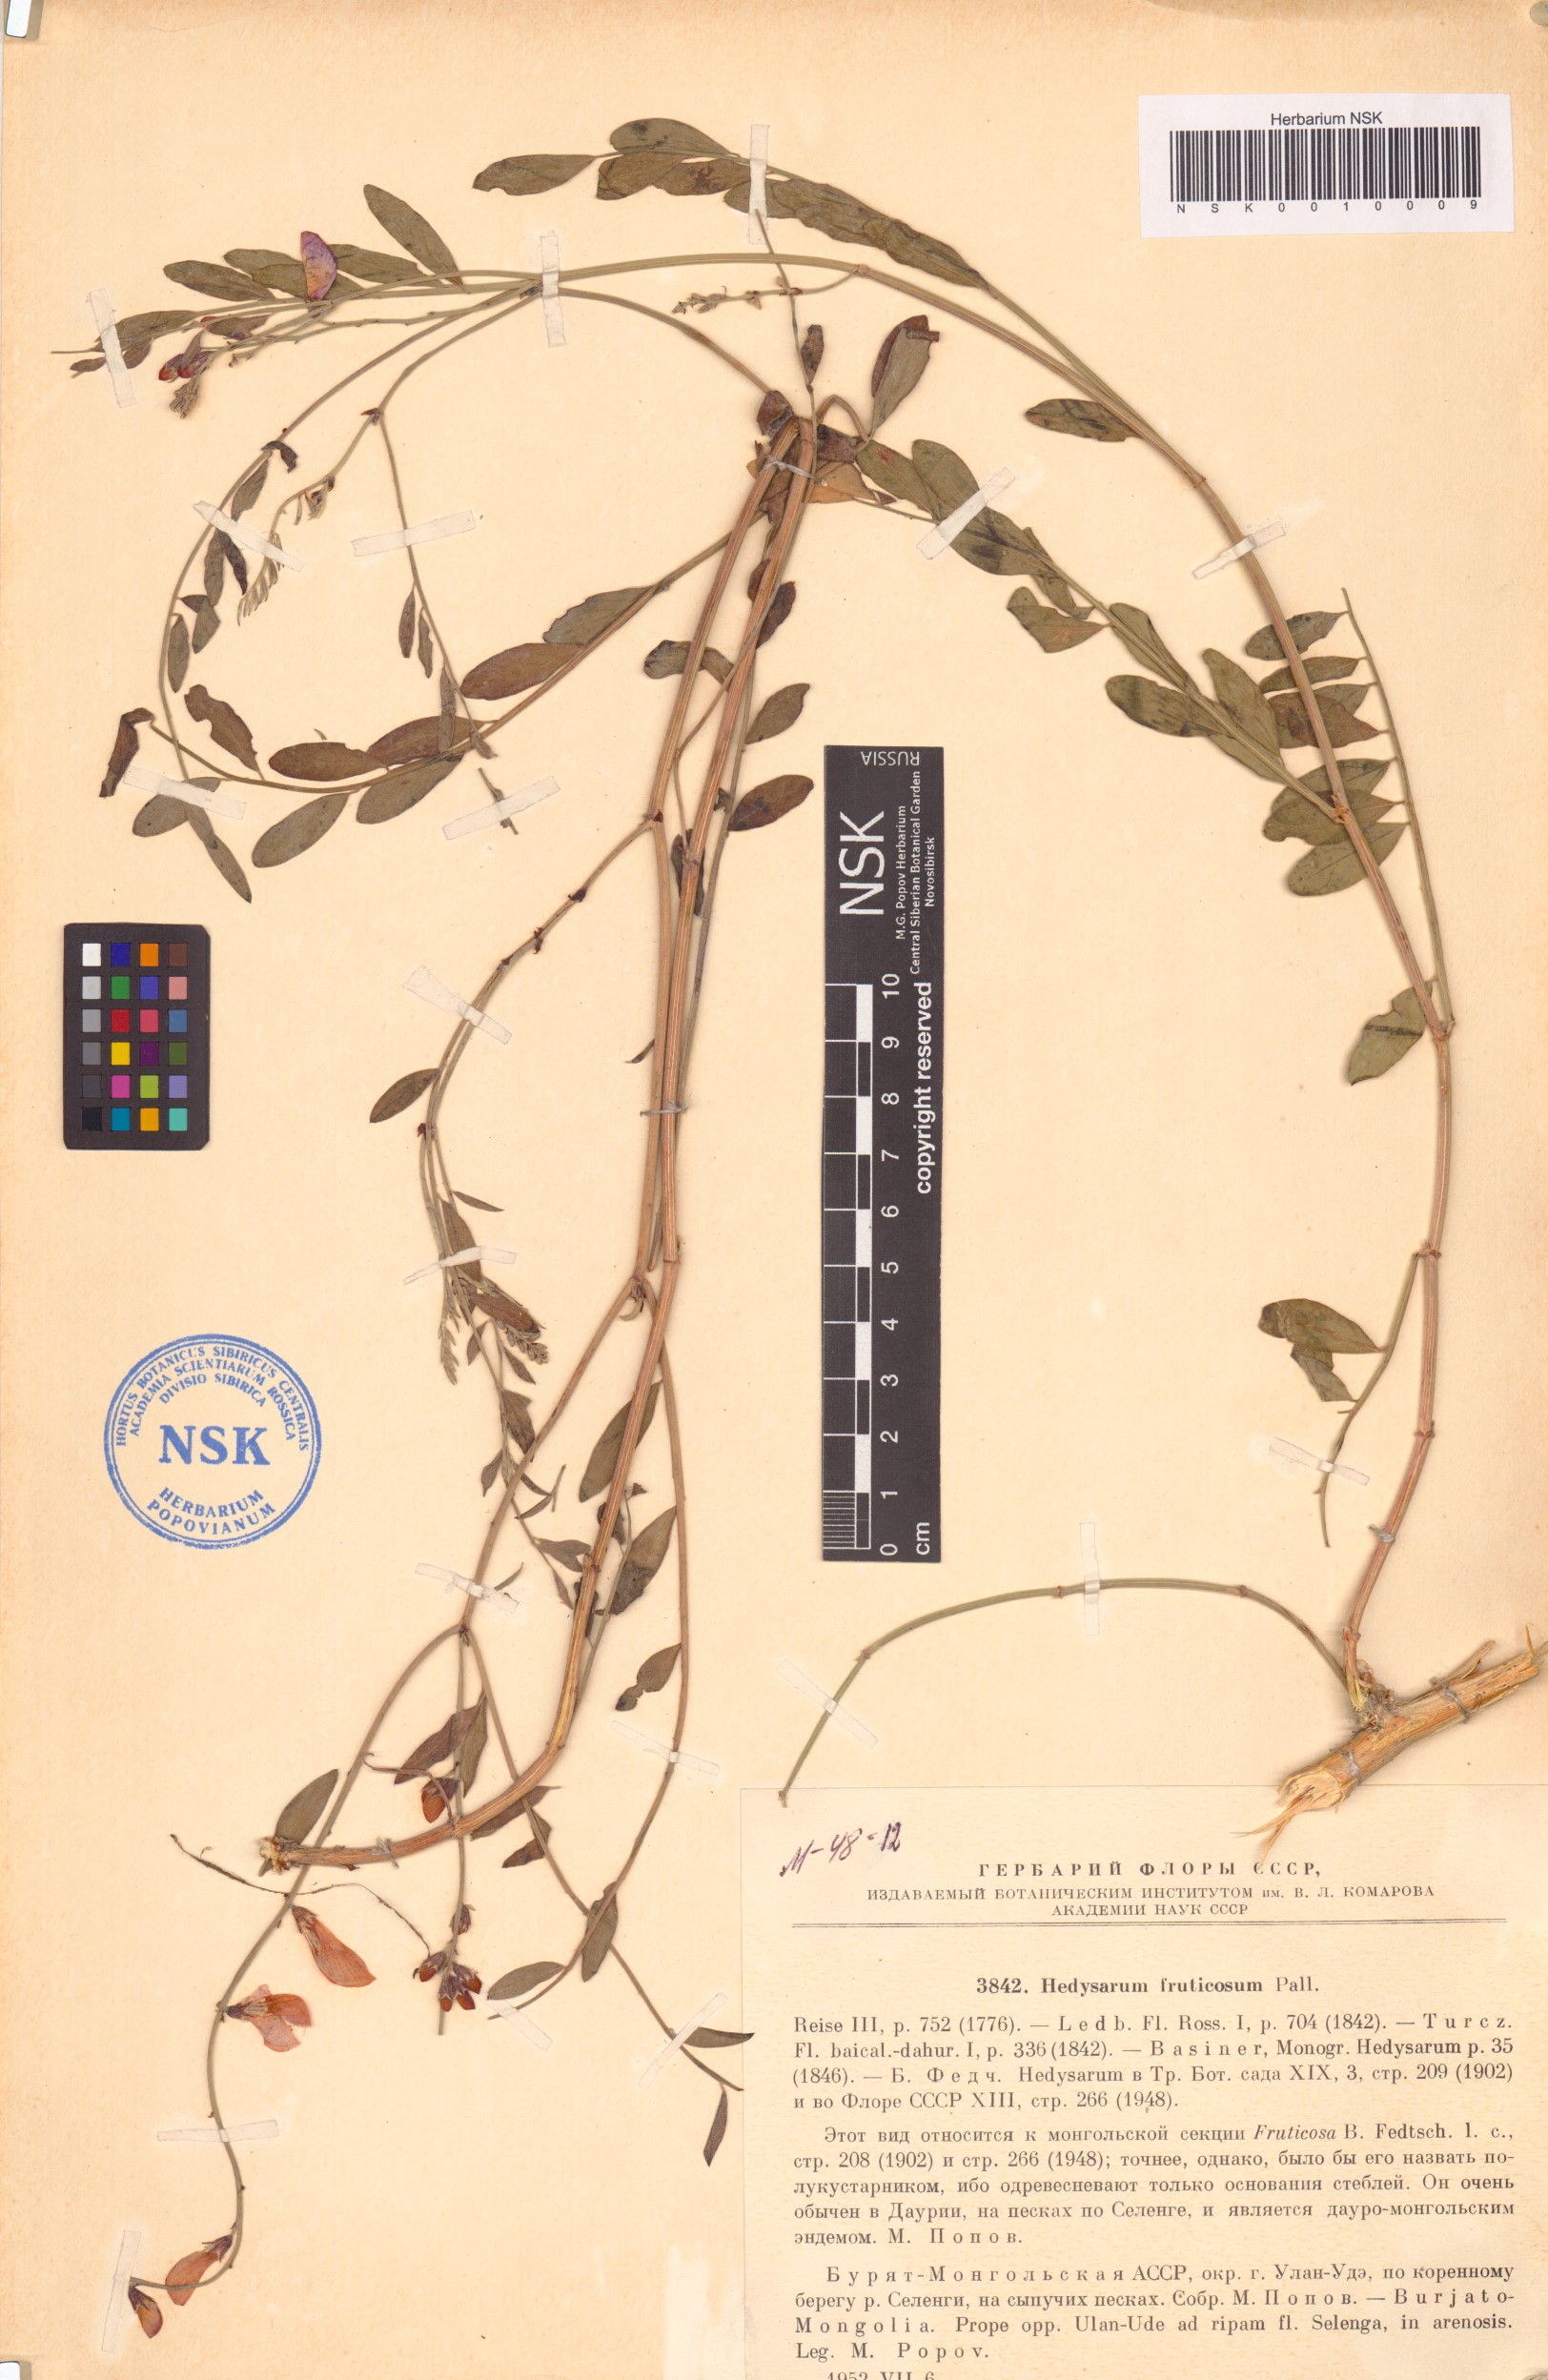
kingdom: Plantae
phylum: Tracheophyta
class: Magnoliopsida
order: Fabales
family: Fabaceae
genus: Corethrodendron
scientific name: Corethrodendron fruticosum
